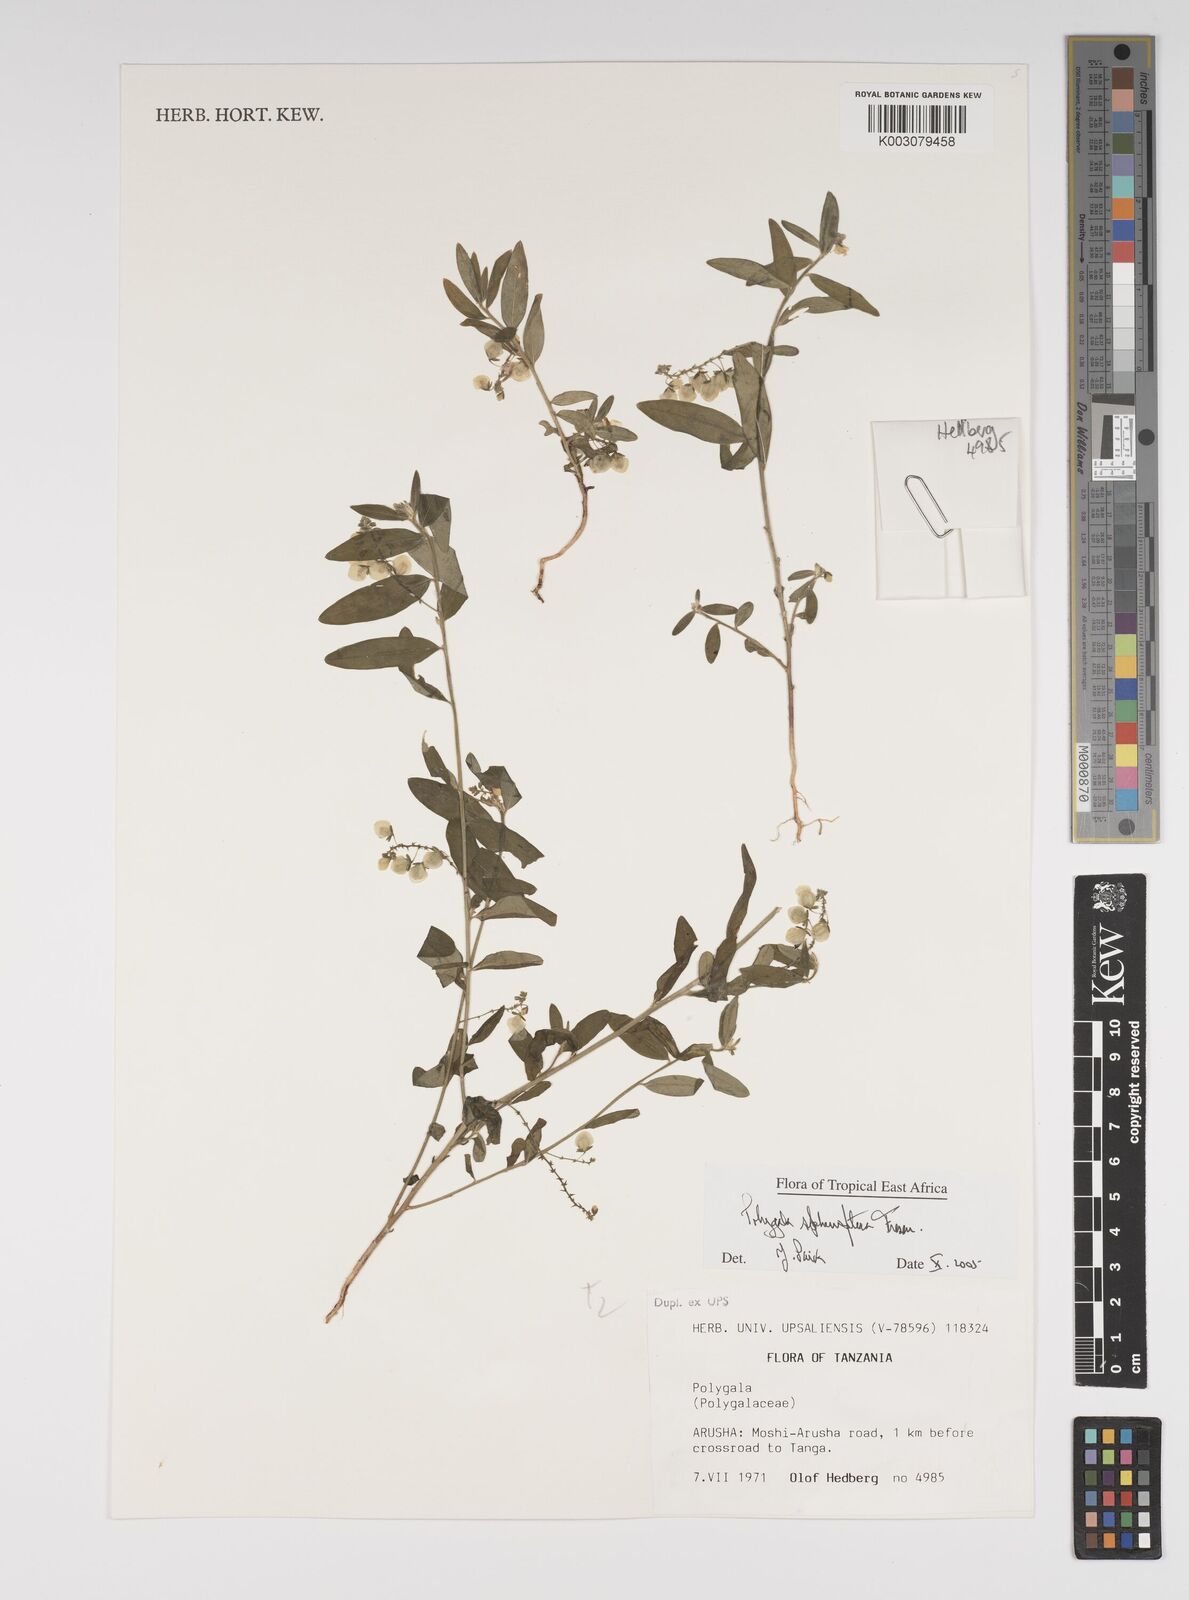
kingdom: Plantae
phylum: Tracheophyta
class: Magnoliopsida
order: Fabales
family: Polygalaceae
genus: Polygala
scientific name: Polygala sphenoptera
